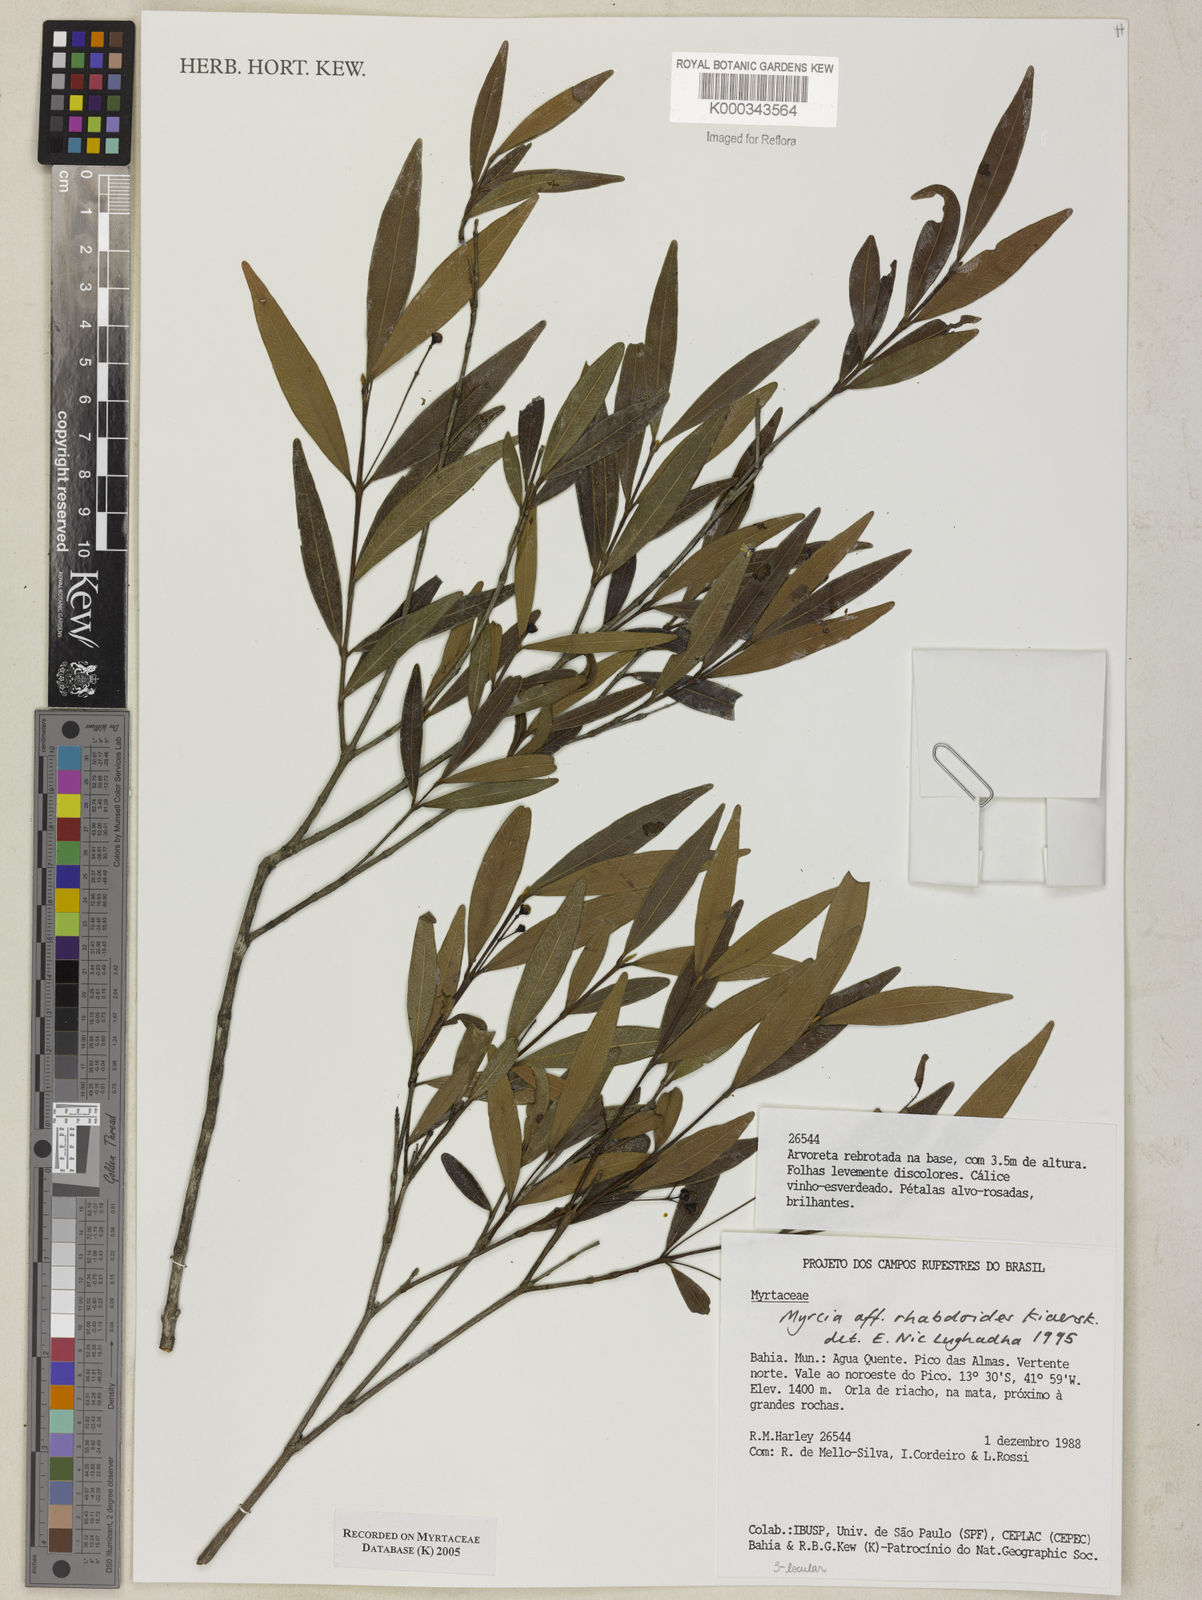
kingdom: Plantae
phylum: Tracheophyta
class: Magnoliopsida
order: Myrtales
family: Myrtaceae
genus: Myrcia
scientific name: Myrcia guianensis
